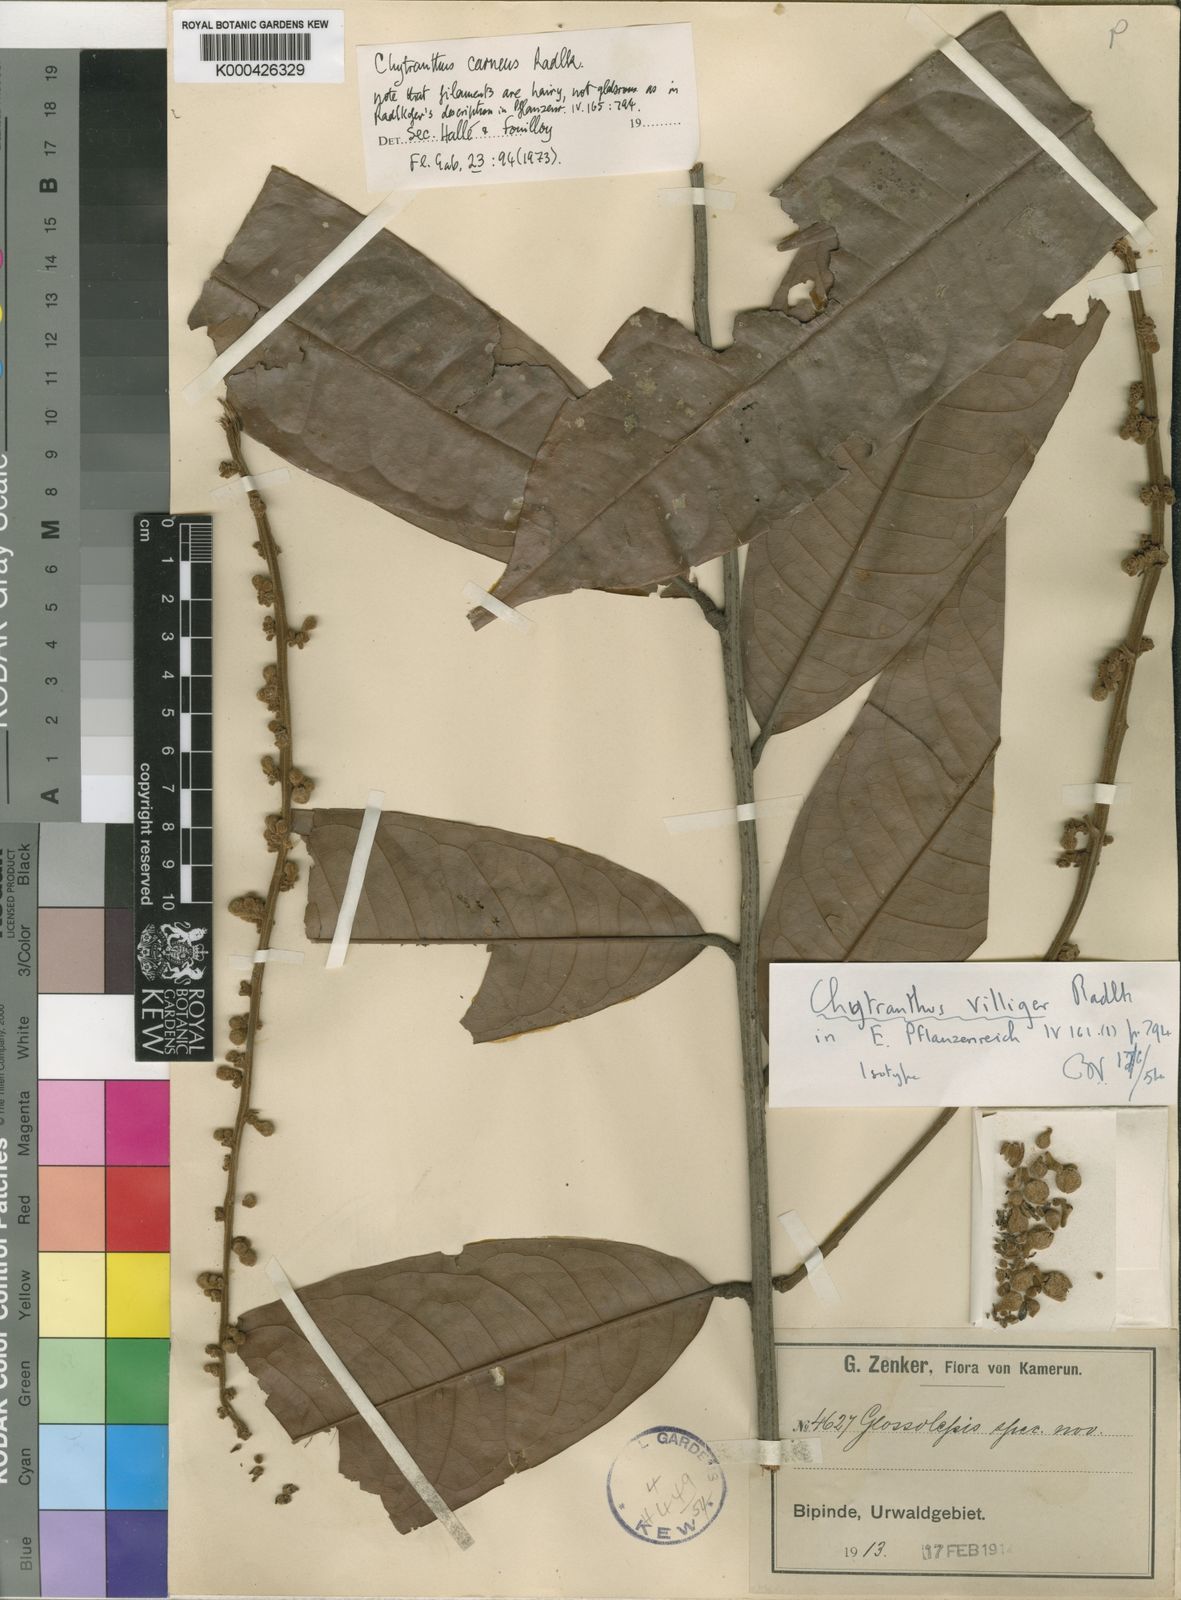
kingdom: Plantae
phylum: Tracheophyta
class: Magnoliopsida
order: Sapindales
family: Sapindaceae
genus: Chytranthus
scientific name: Chytranthus carneus
